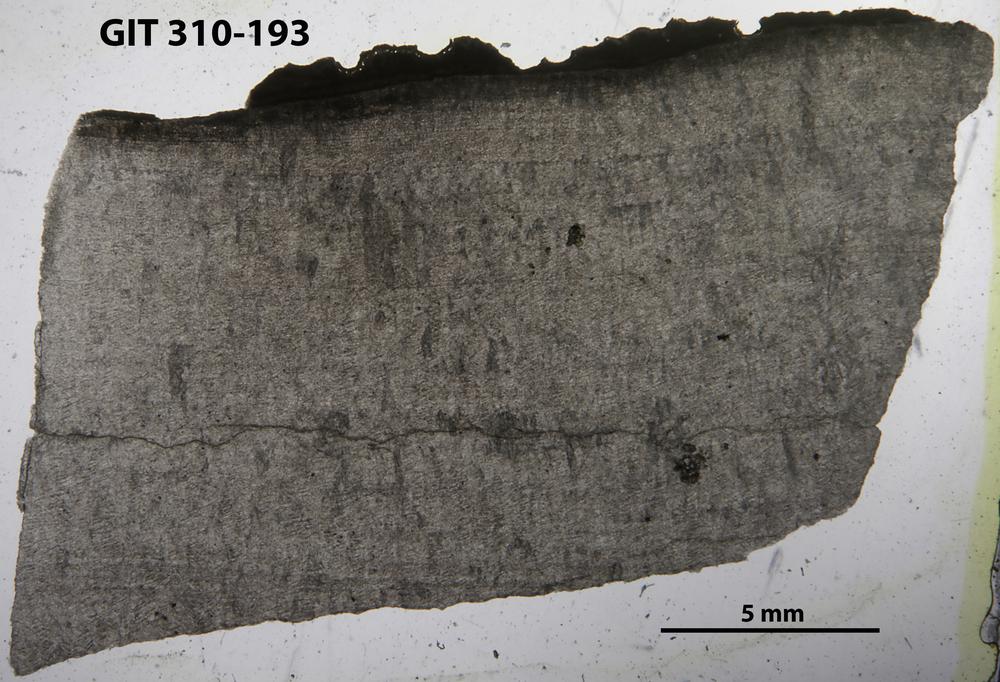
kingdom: Animalia
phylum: Porifera
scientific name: Porifera
